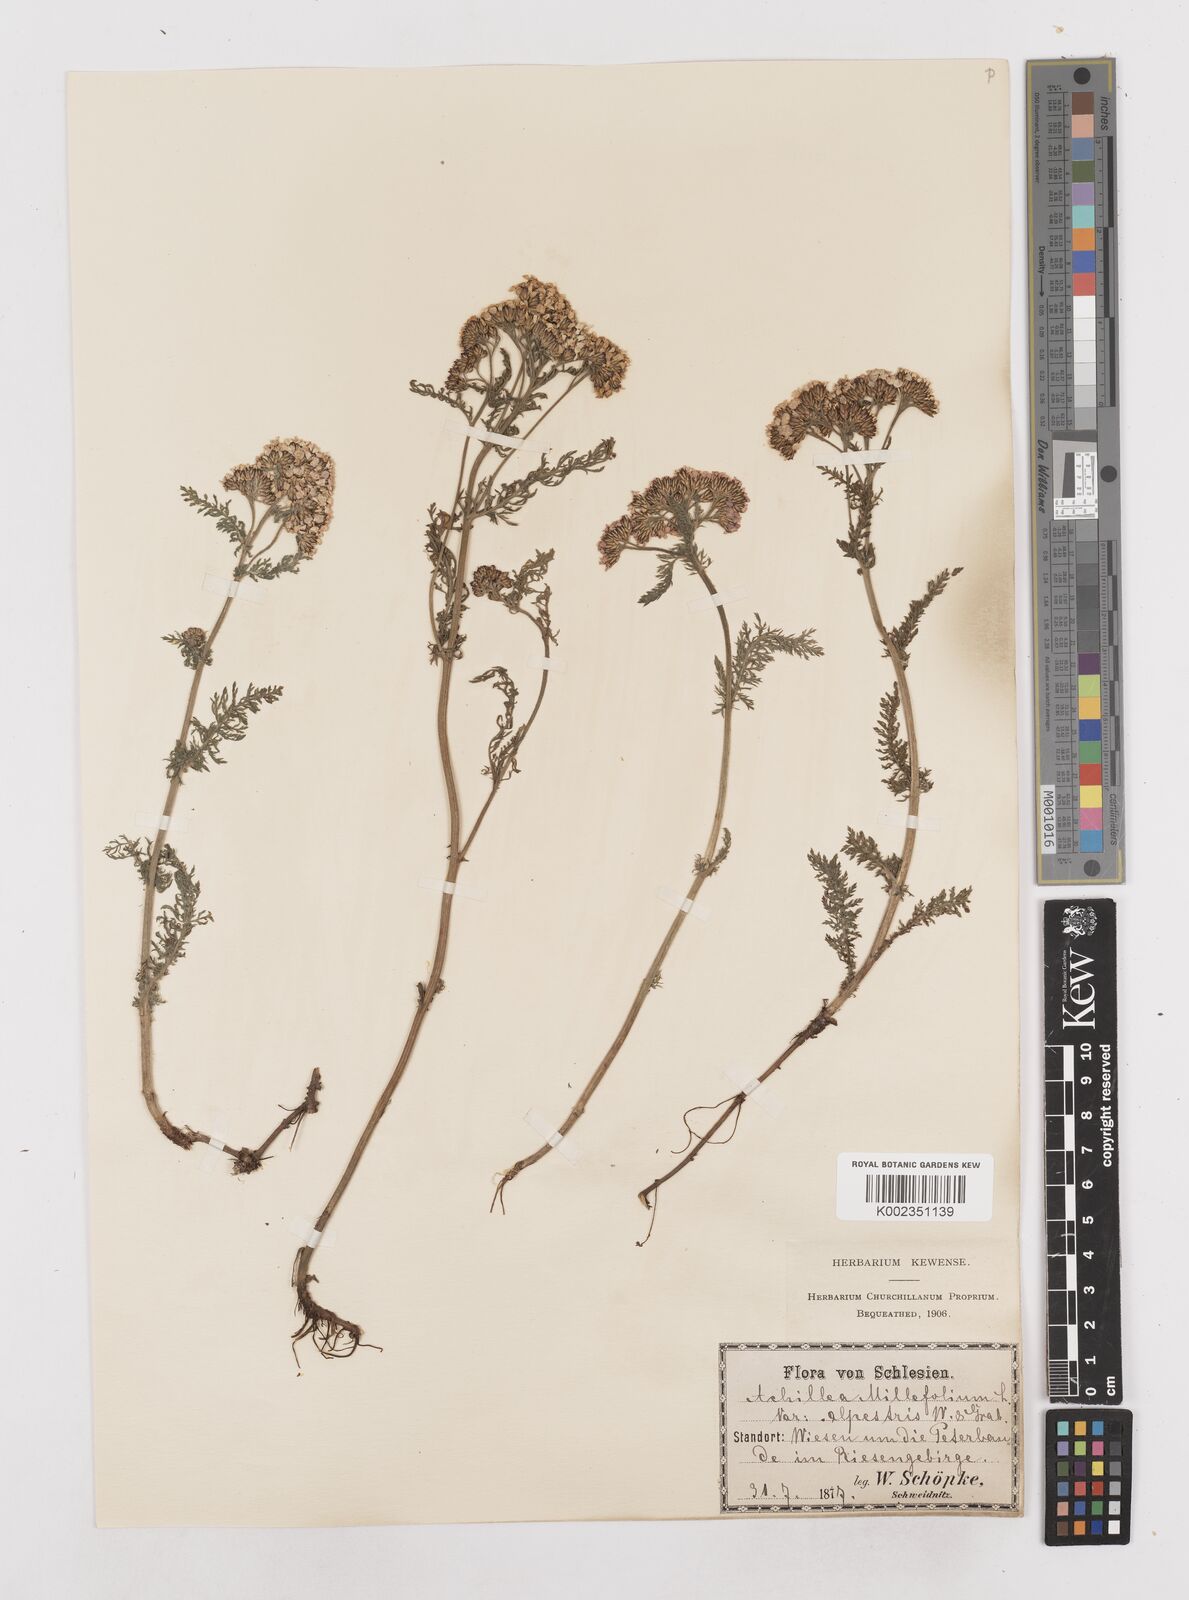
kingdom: Plantae
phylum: Tracheophyta
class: Magnoliopsida
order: Asterales
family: Asteraceae
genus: Achillea
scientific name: Achillea millefolium
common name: Yarrow
